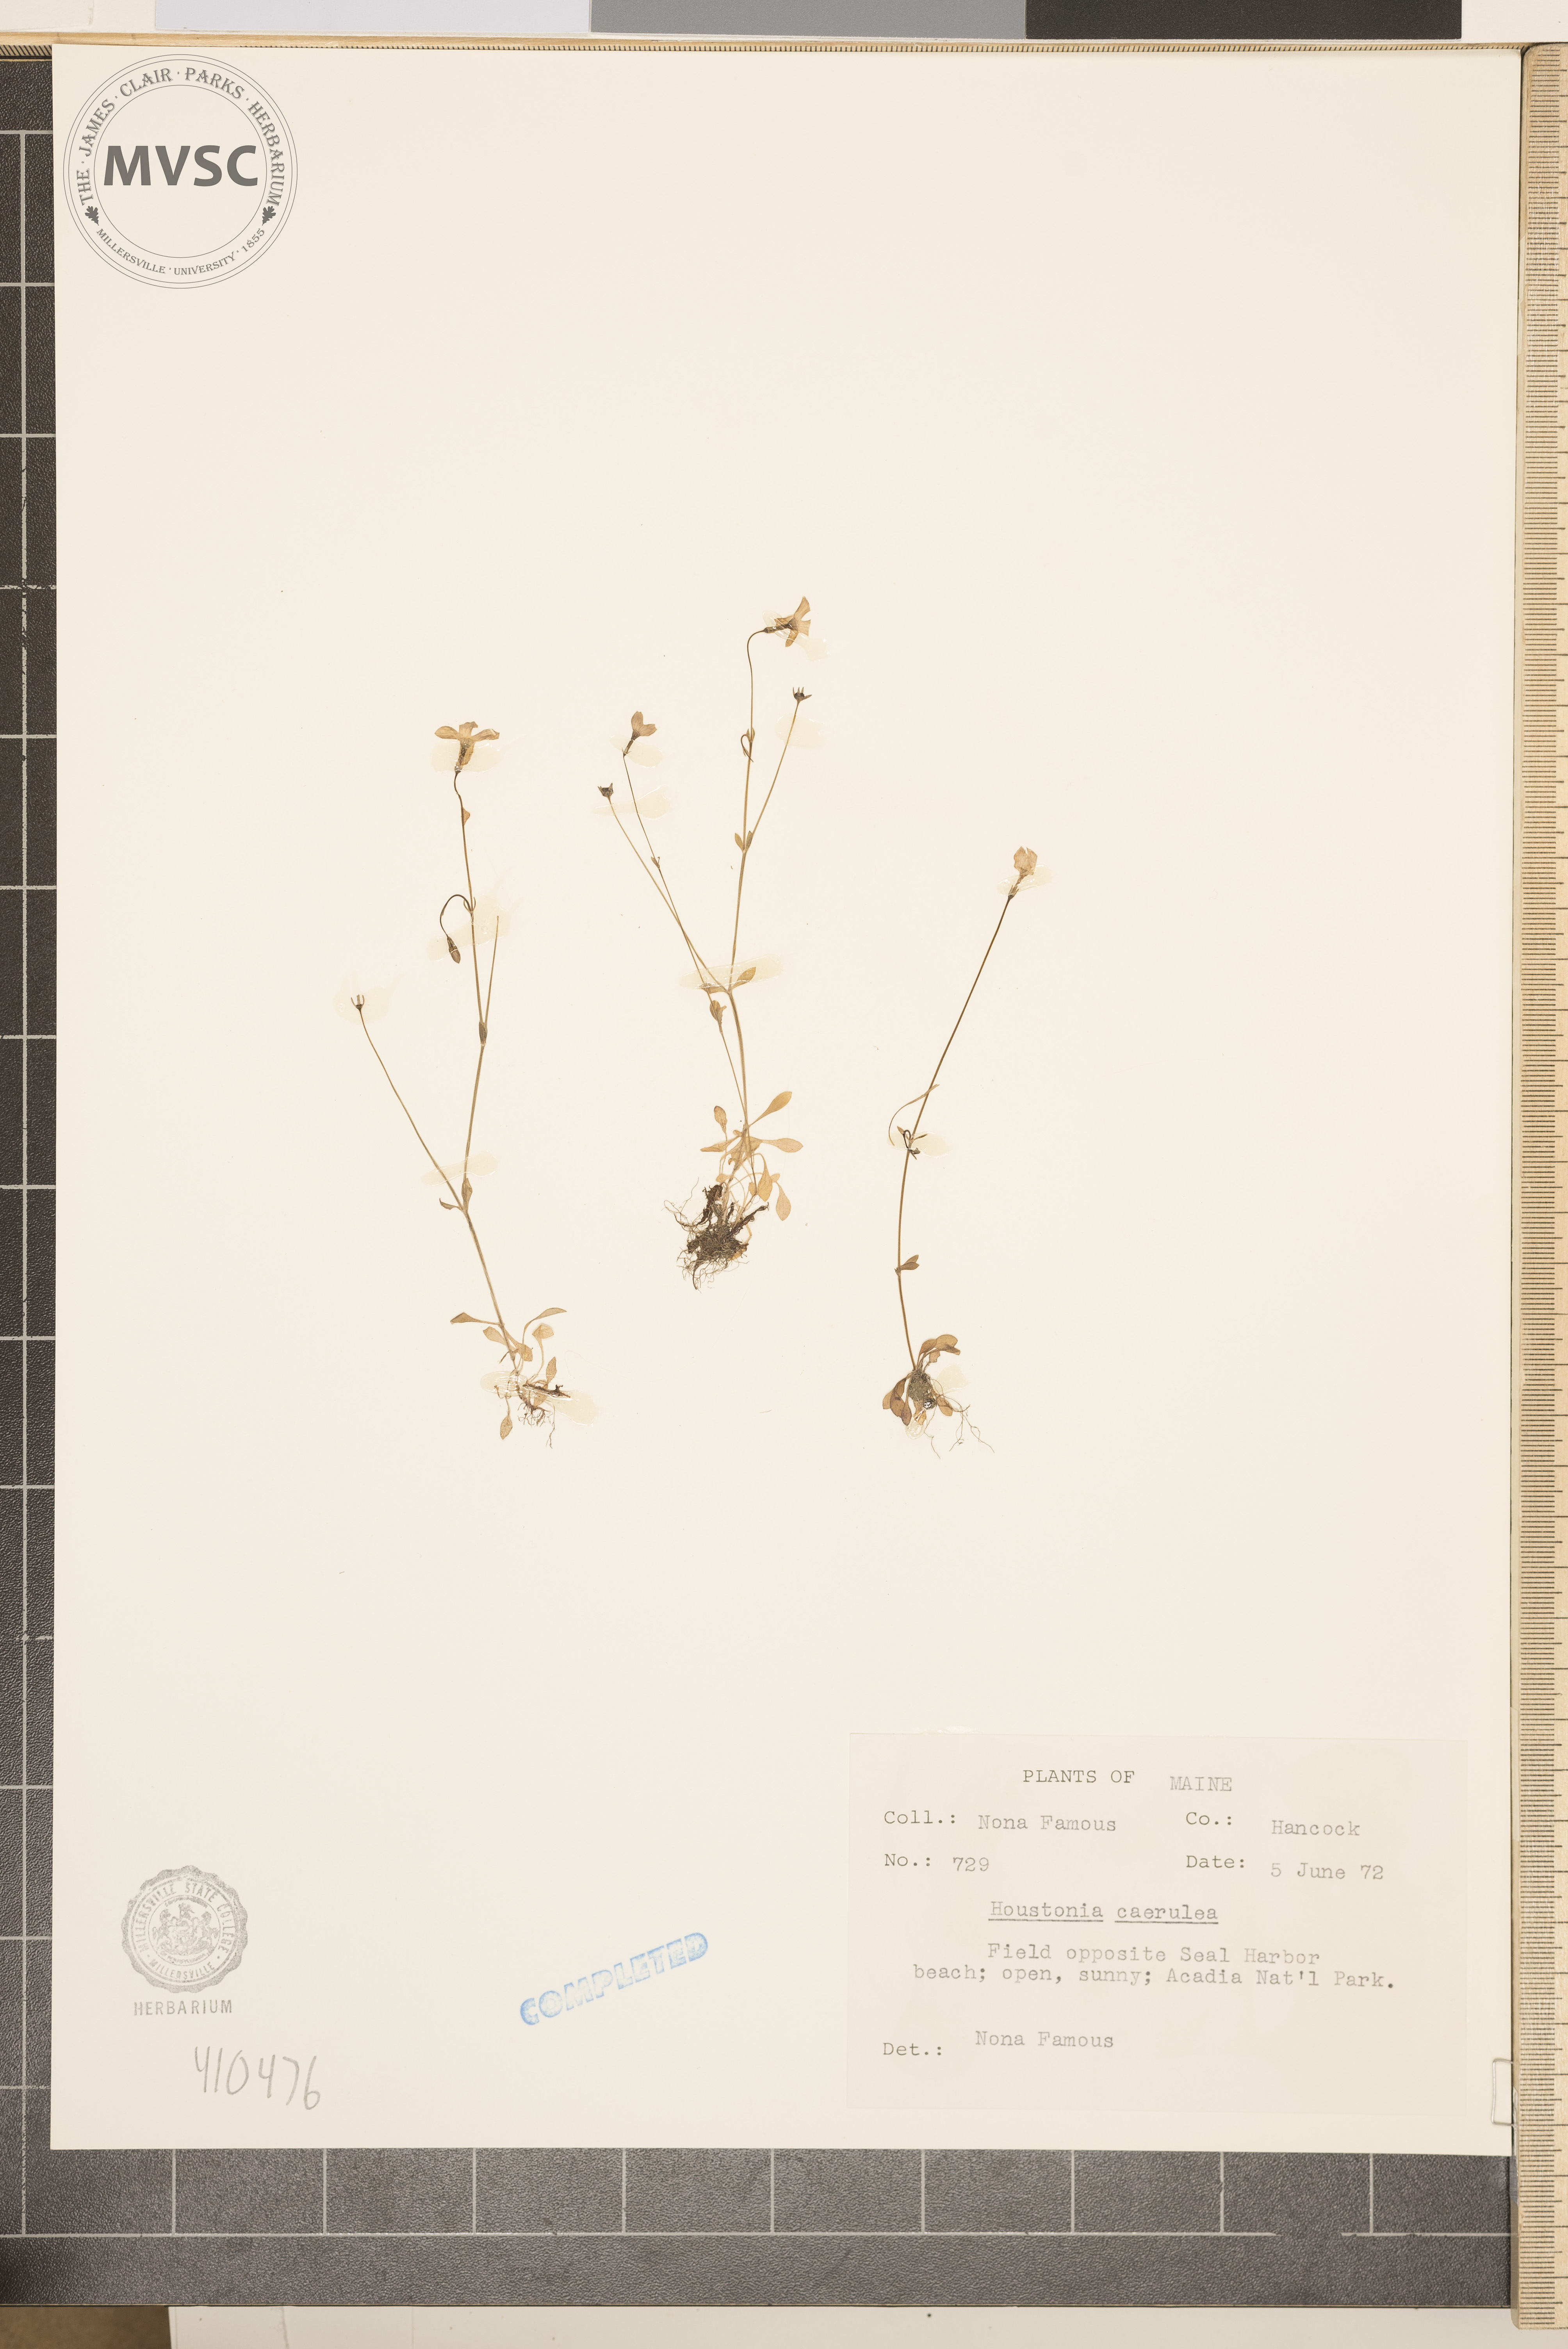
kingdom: Plantae
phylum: Tracheophyta
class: Magnoliopsida
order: Gentianales
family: Rubiaceae
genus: Houstonia
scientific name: Houstonia caerulea
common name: Bluets
